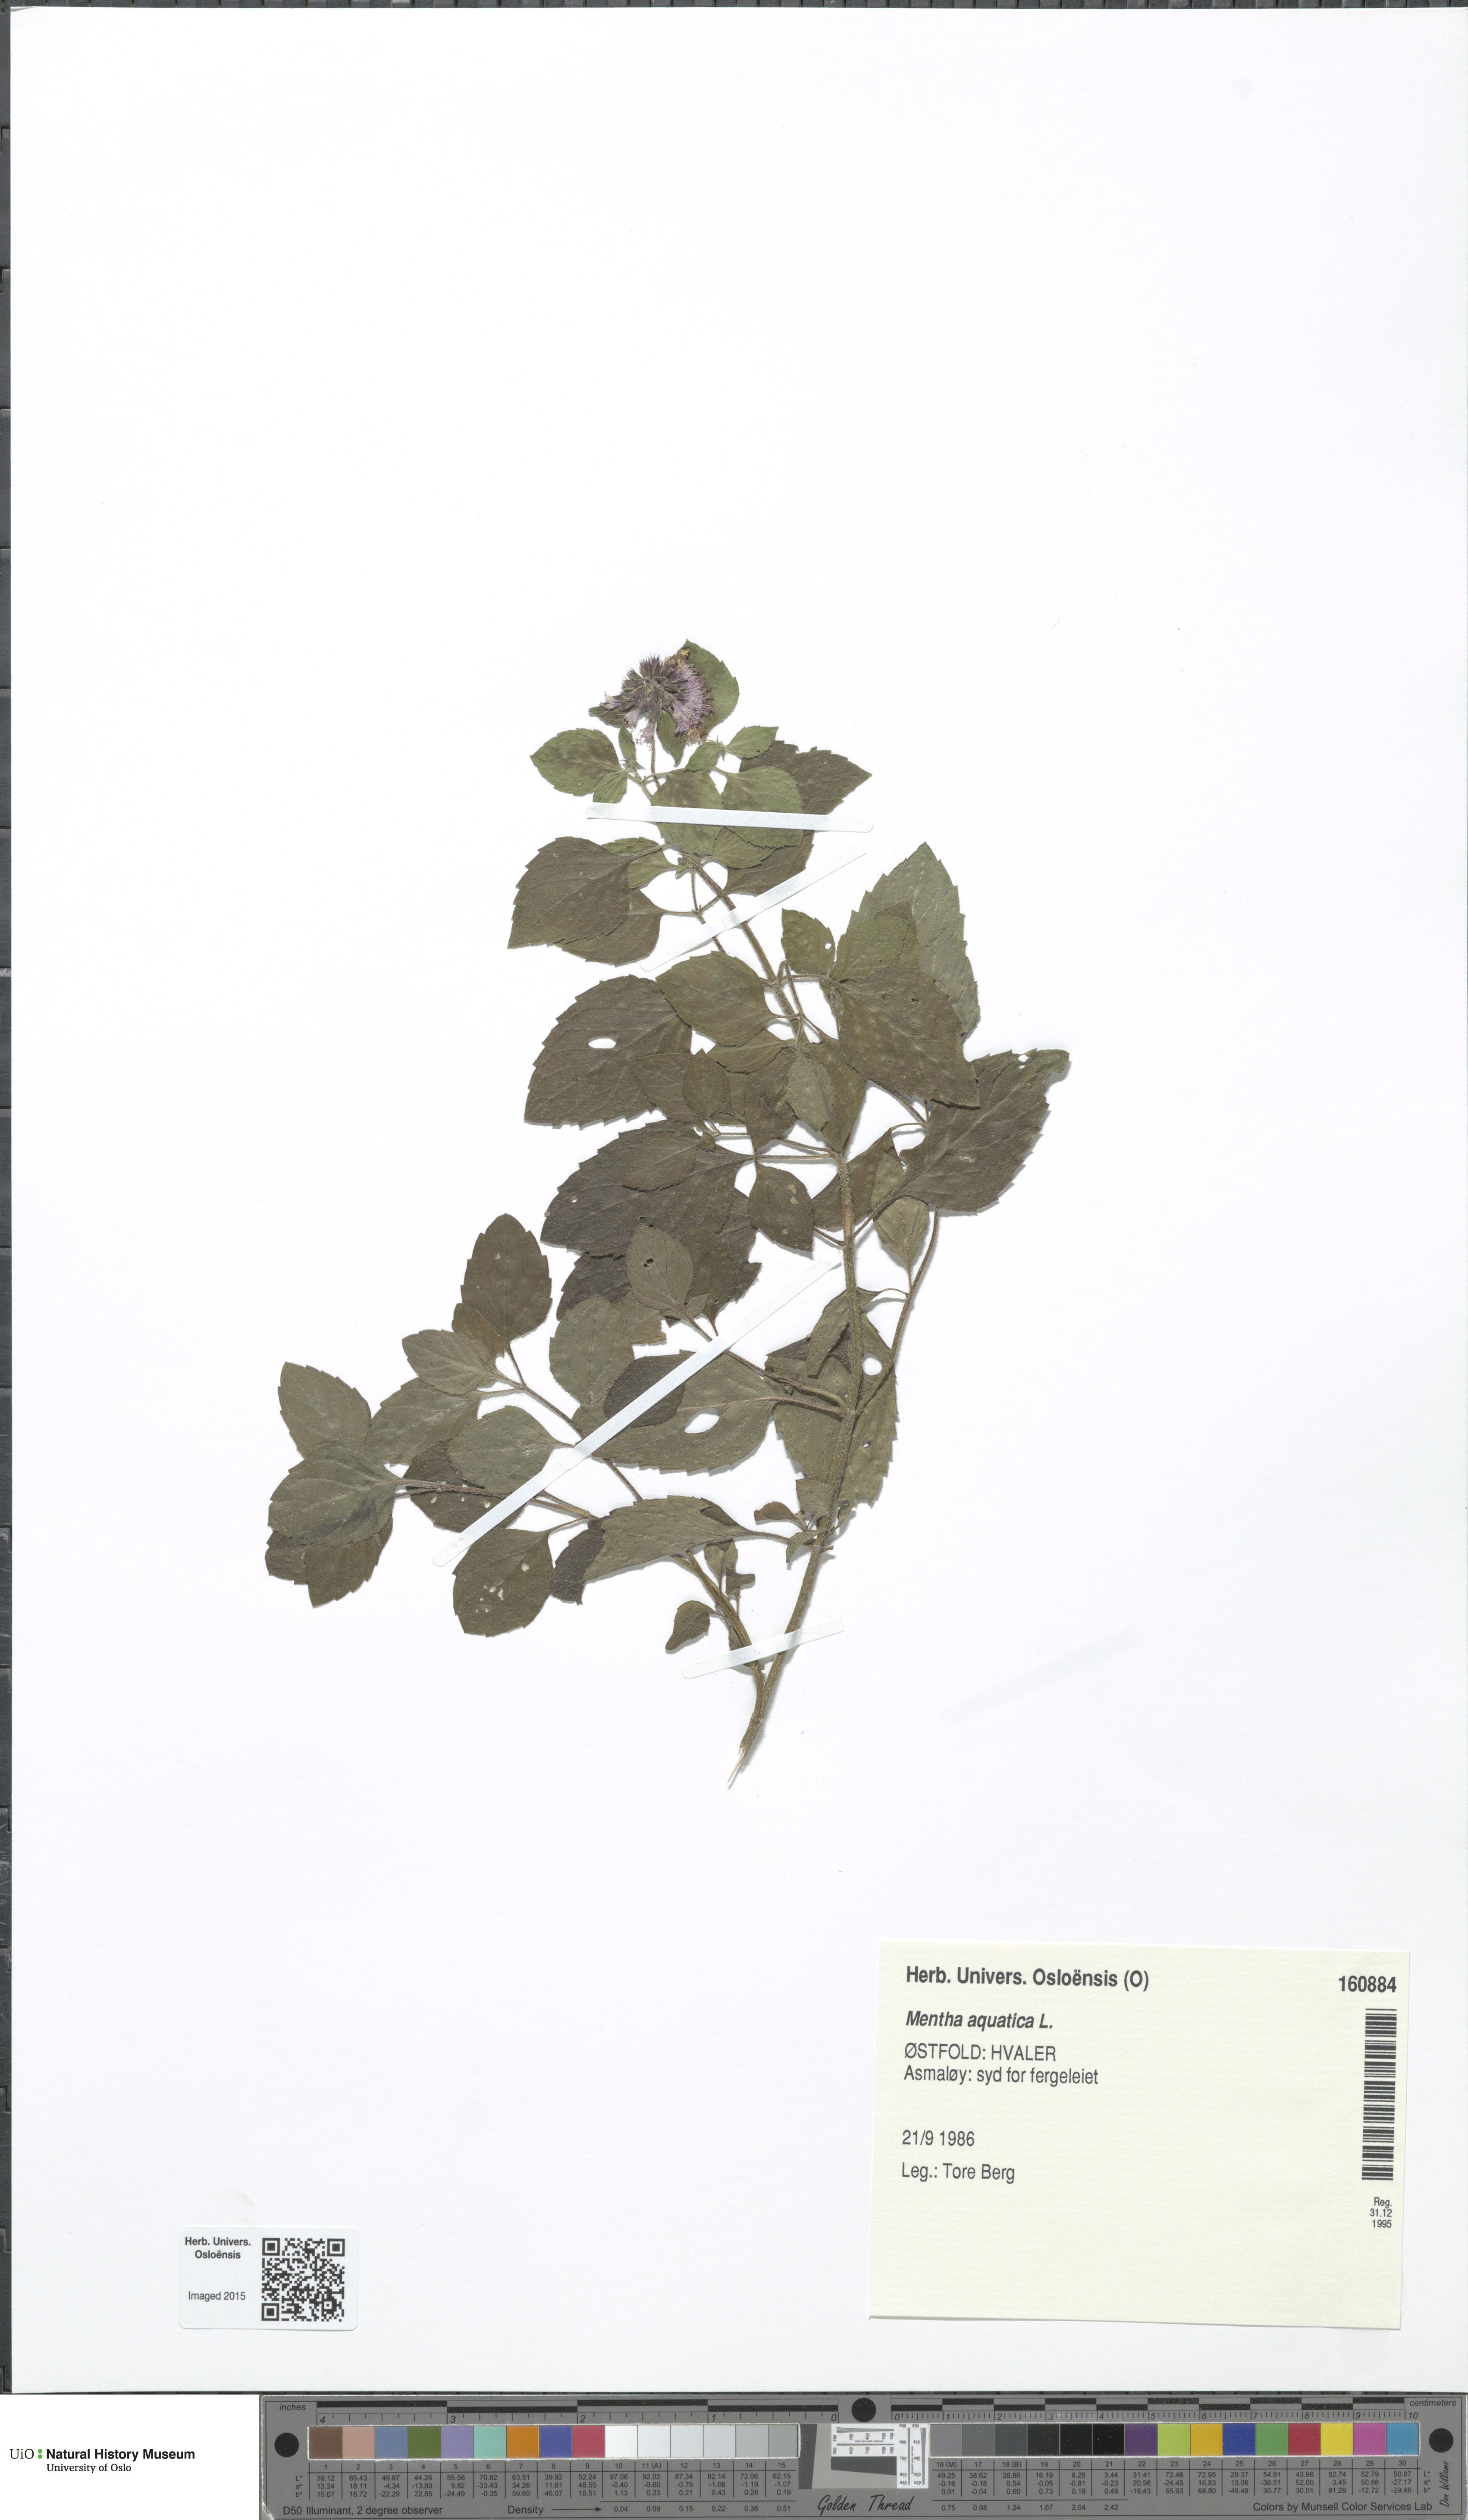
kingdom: Plantae
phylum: Tracheophyta
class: Magnoliopsida
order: Lamiales
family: Lamiaceae
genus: Mentha
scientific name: Mentha aquatica
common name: Water mint
